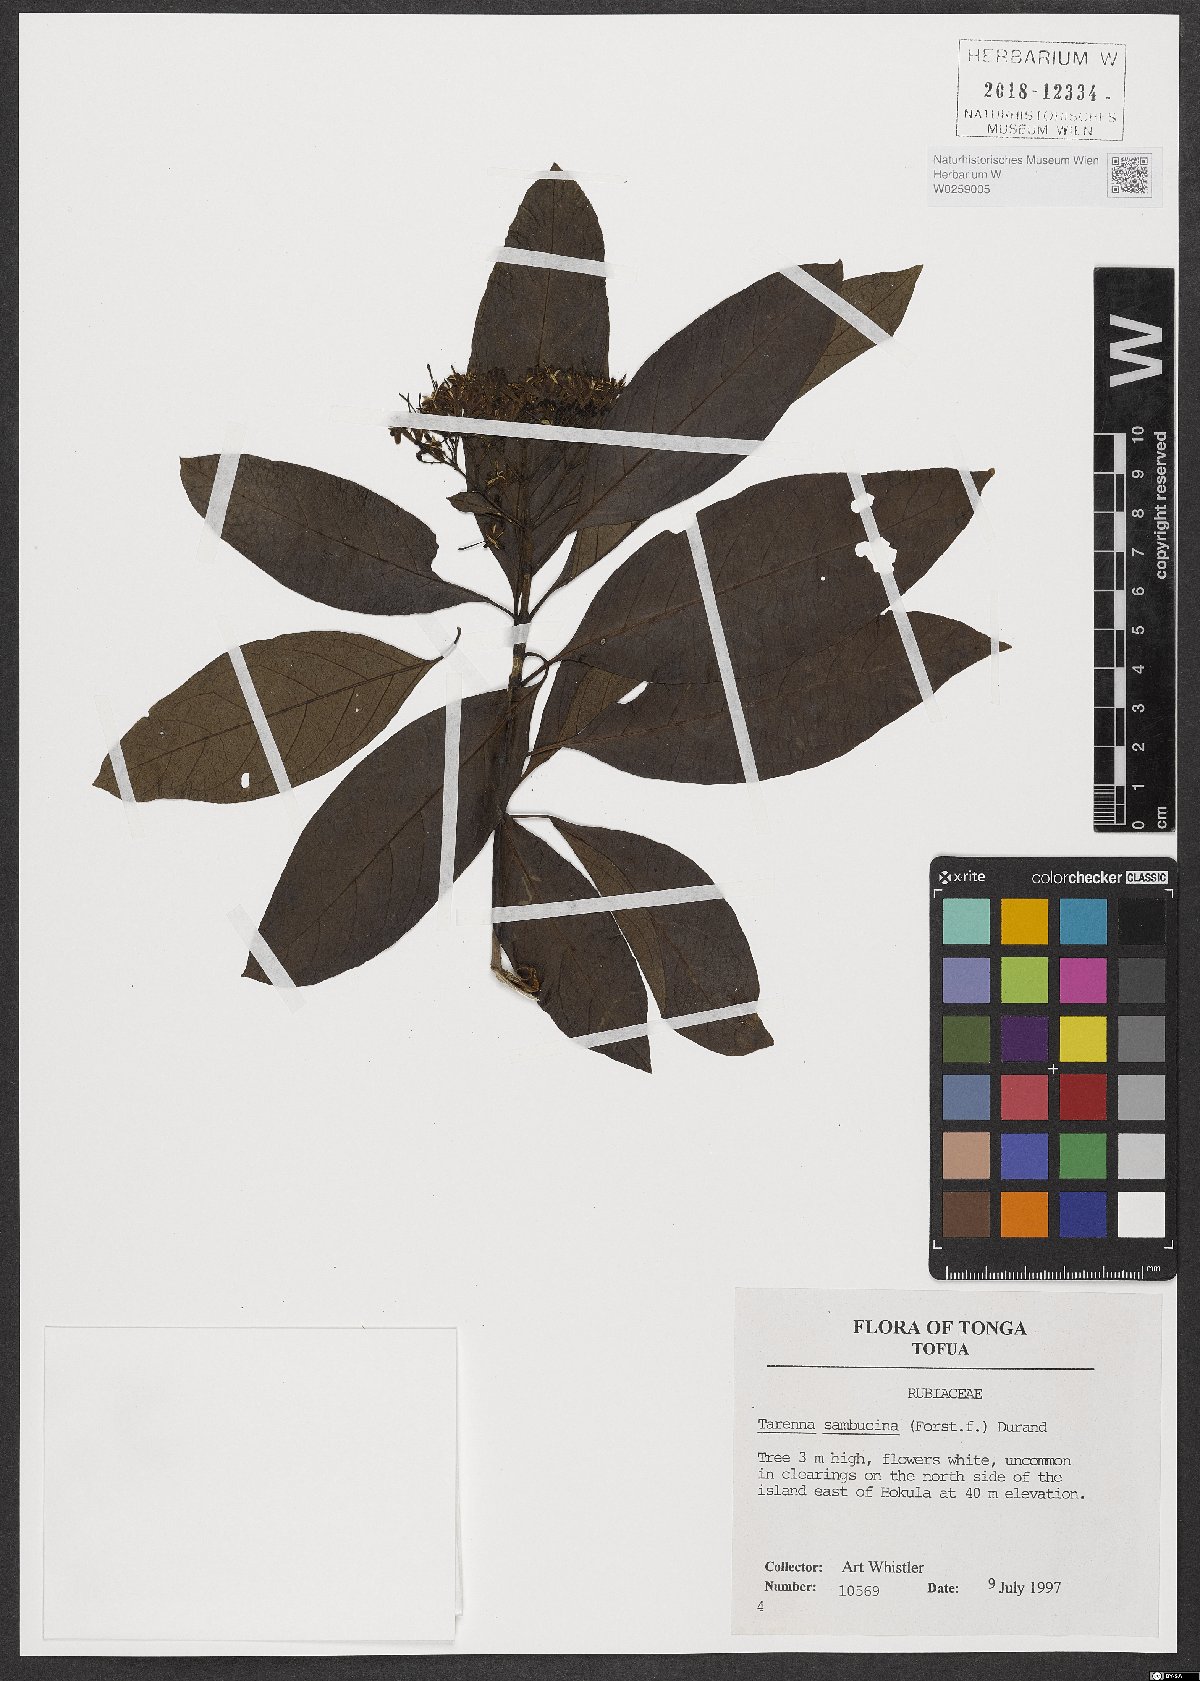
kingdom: Plantae
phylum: Tracheophyta
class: Magnoliopsida
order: Gentianales
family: Rubiaceae
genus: Tarenna
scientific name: Tarenna sambucina
